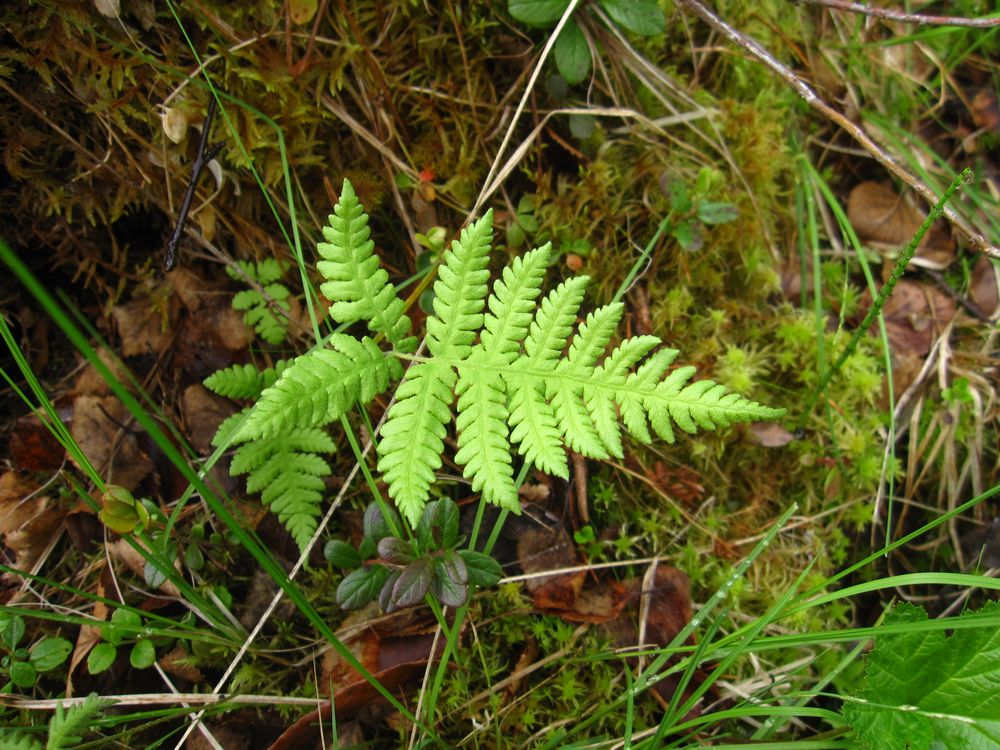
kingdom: Plantae
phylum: Tracheophyta
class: Polypodiopsida
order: Polypodiales
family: Thelypteridaceae
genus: Phegopteris
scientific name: Phegopteris connectilis
